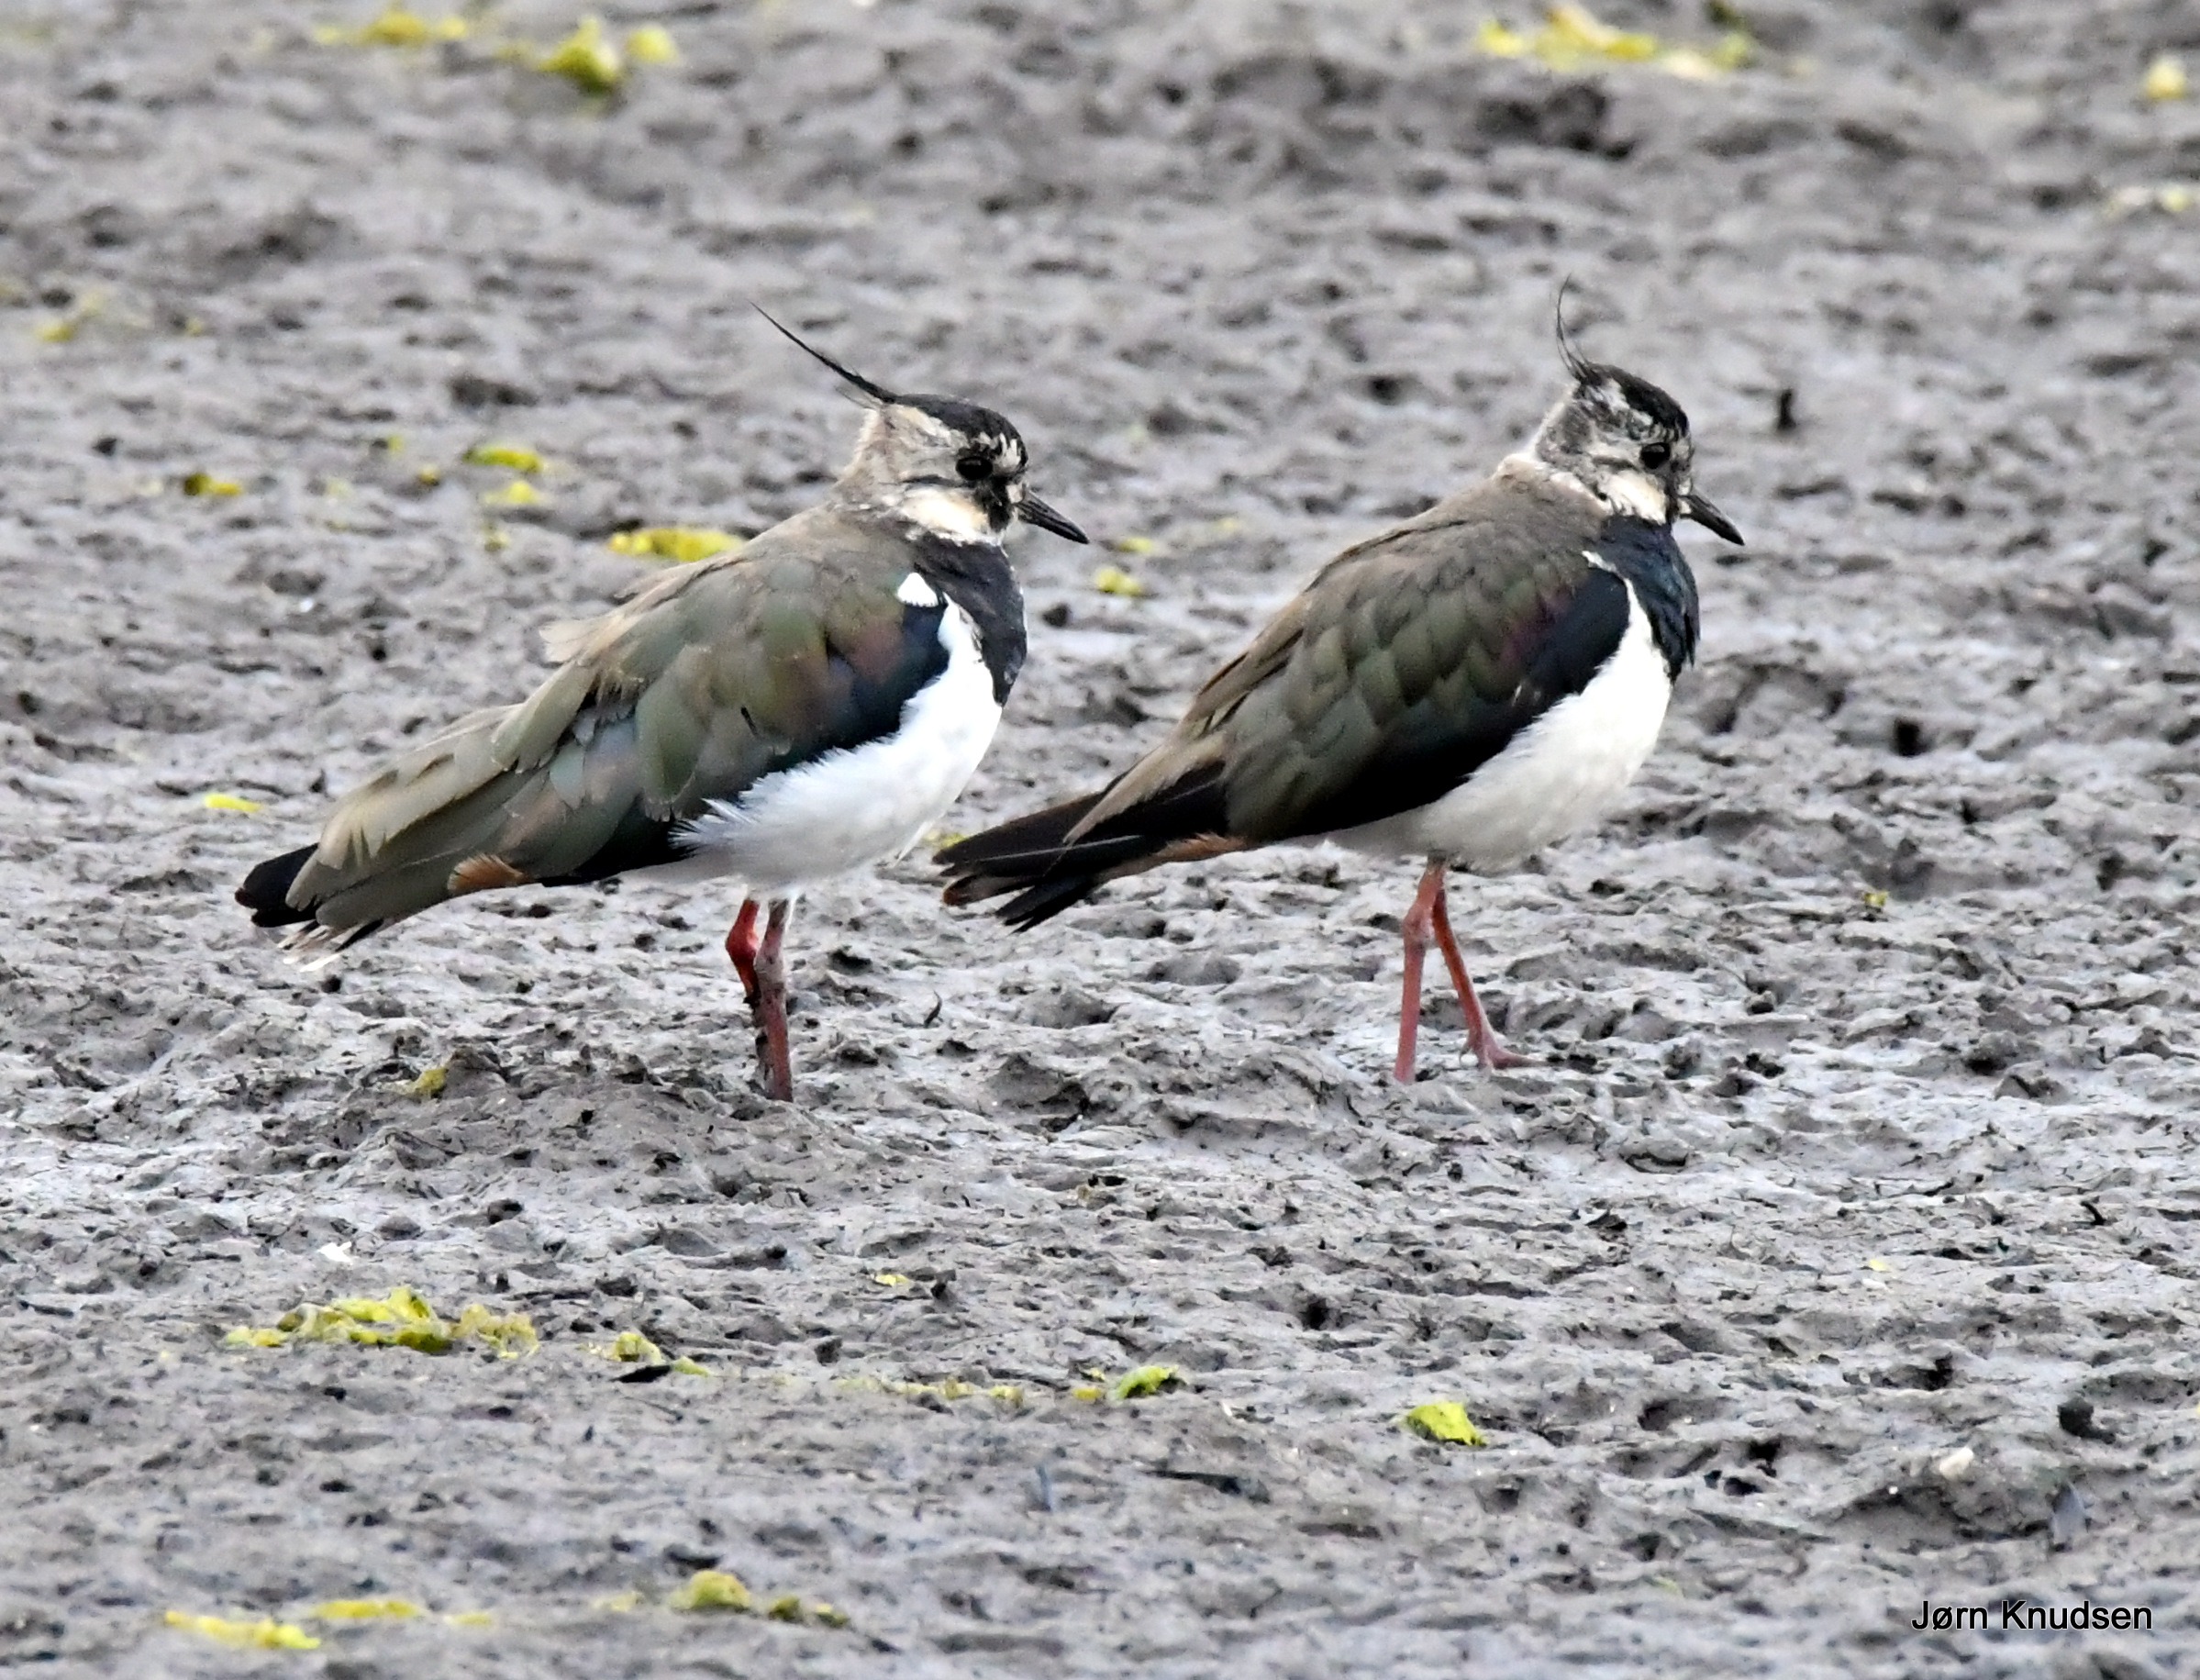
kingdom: Animalia
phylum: Chordata
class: Aves
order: Charadriiformes
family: Charadriidae
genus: Vanellus
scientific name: Vanellus vanellus
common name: Vibe
